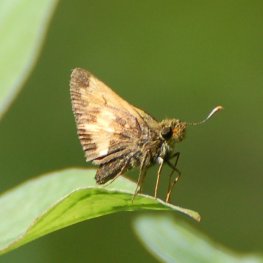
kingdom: Animalia
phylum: Arthropoda
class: Insecta
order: Lepidoptera
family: Hesperiidae
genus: Lon
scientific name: Lon hobomok
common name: Hobomok Skipper
